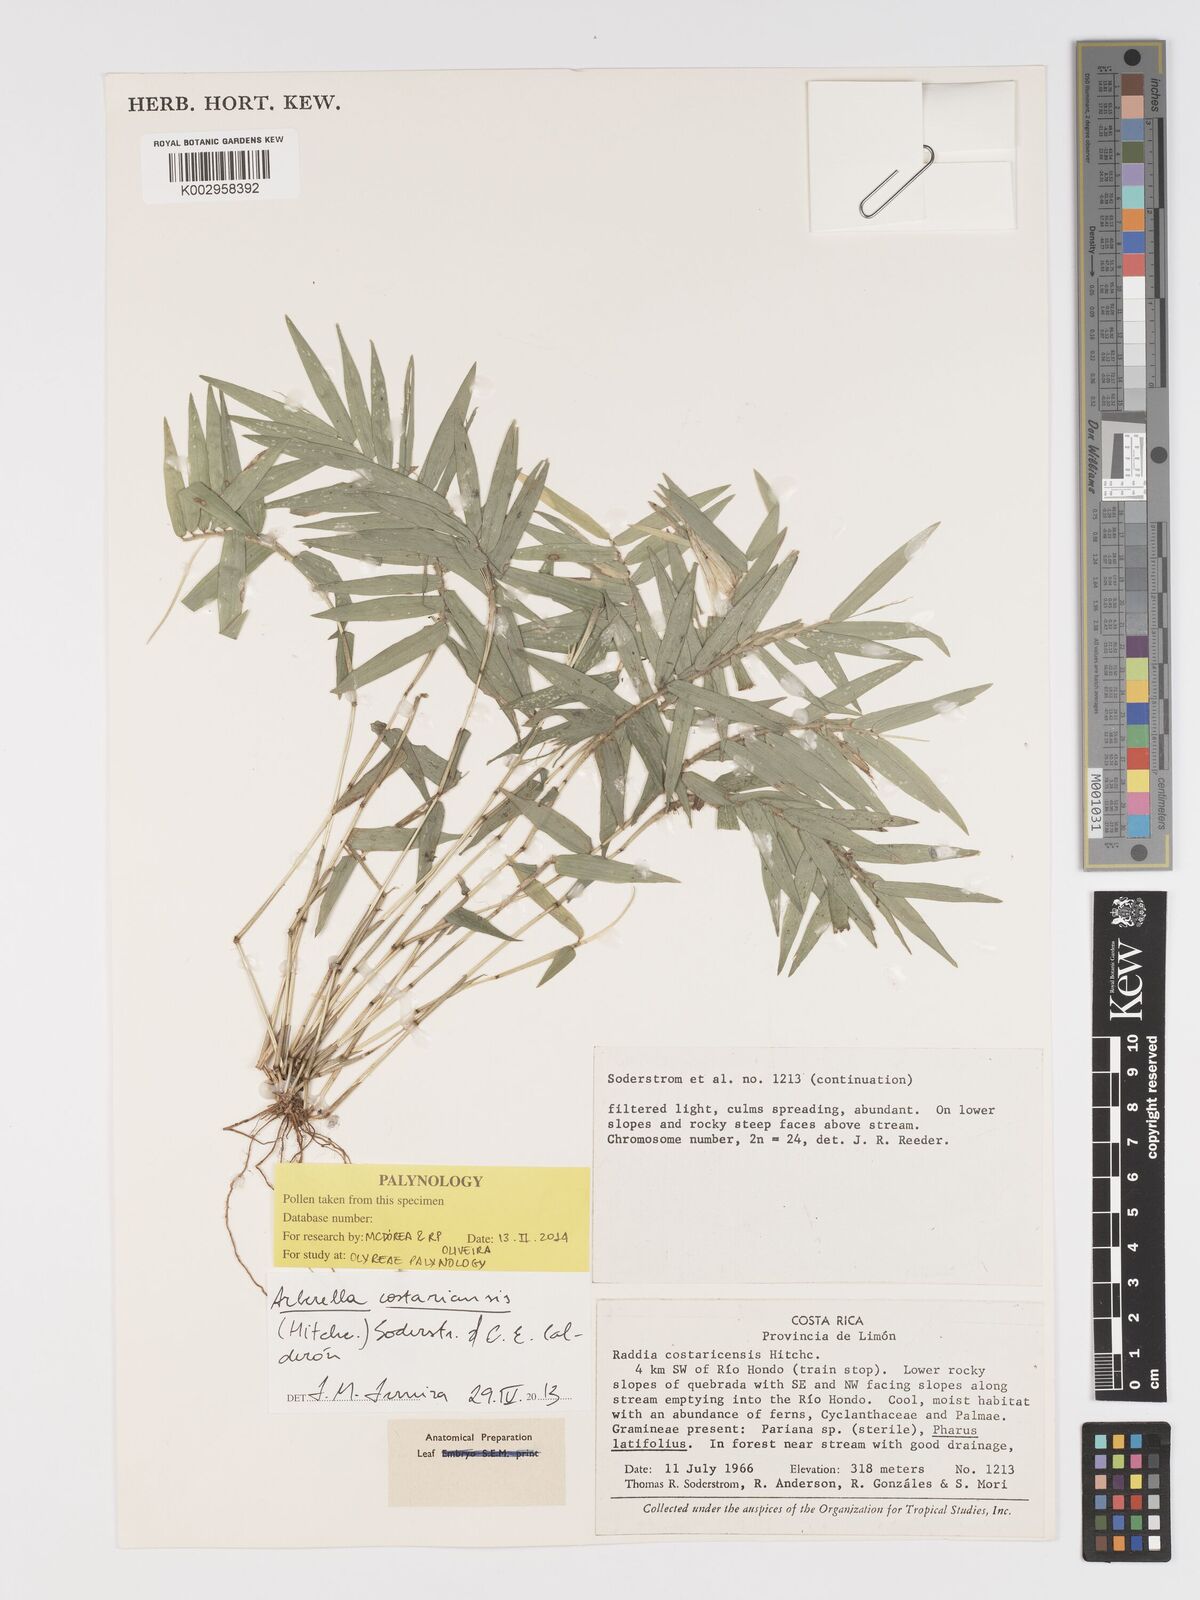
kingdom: Plantae
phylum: Tracheophyta
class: Liliopsida
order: Poales
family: Poaceae
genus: Arberella
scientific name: Arberella costaricensis
